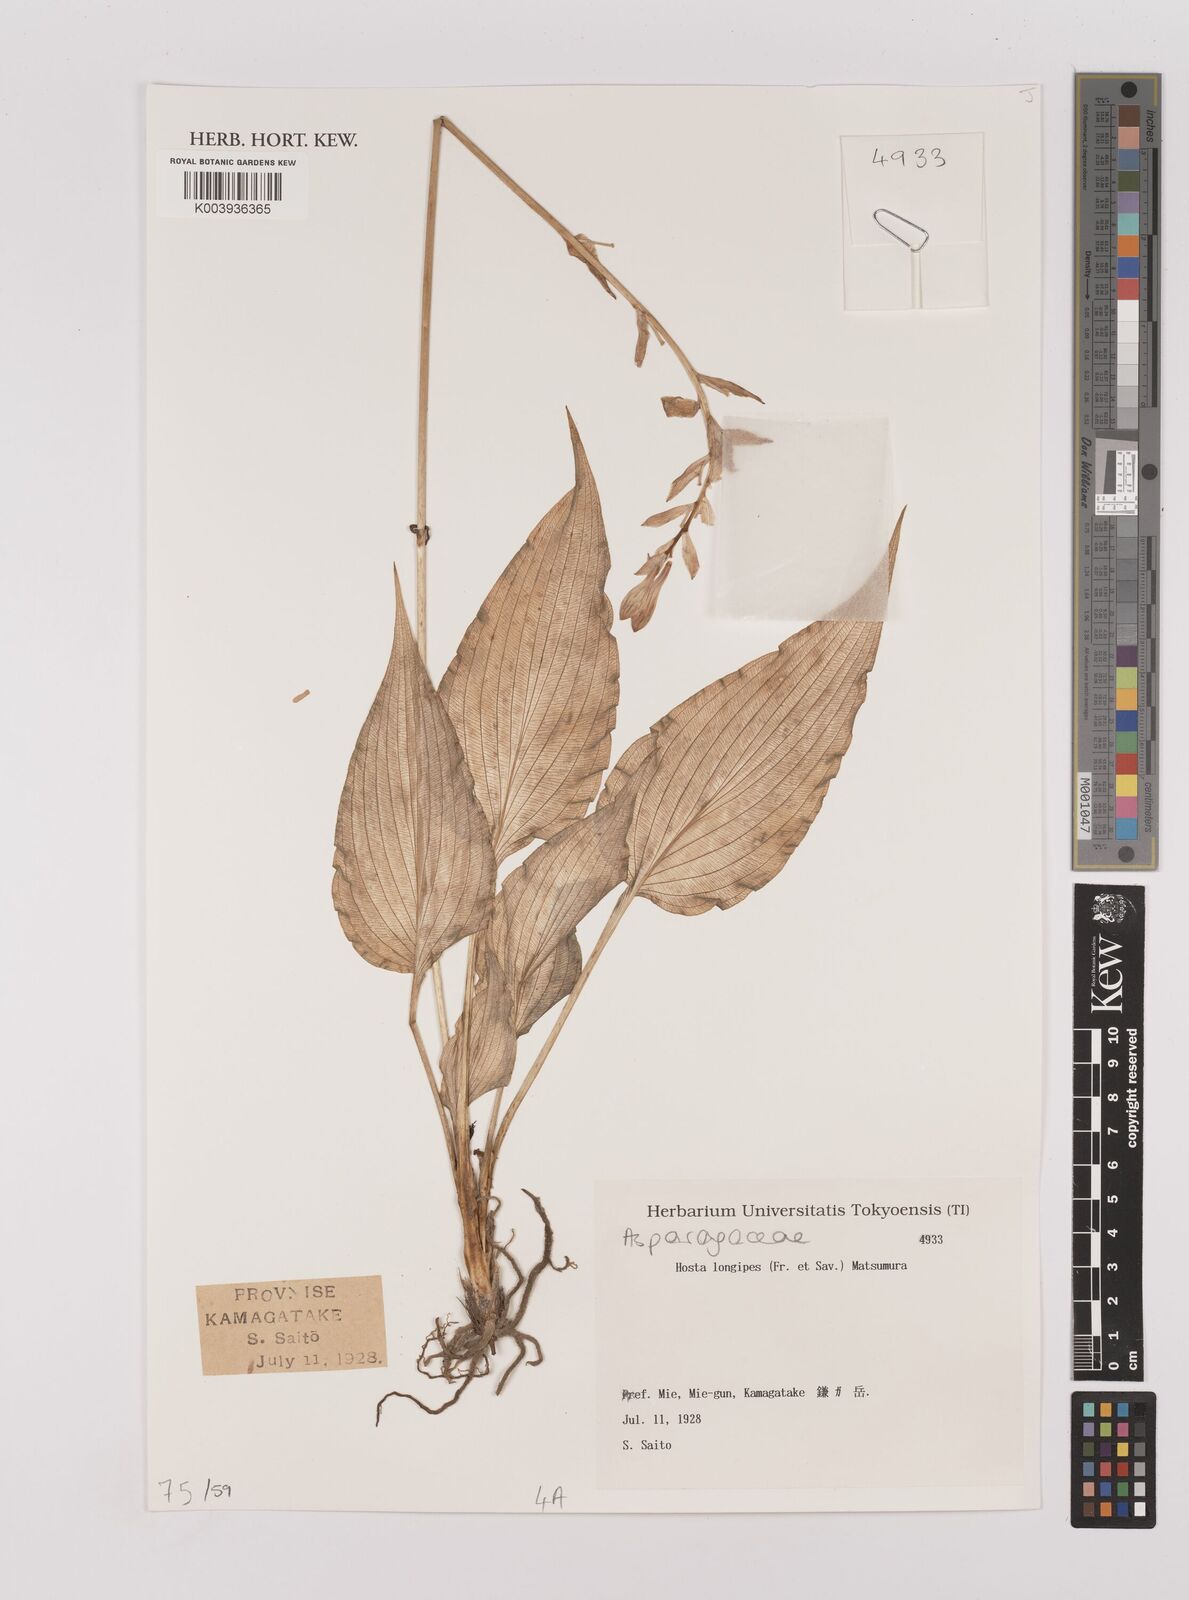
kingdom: Plantae
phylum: Tracheophyta
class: Liliopsida
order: Asparagales
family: Asparagaceae
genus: Hosta
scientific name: Hosta
